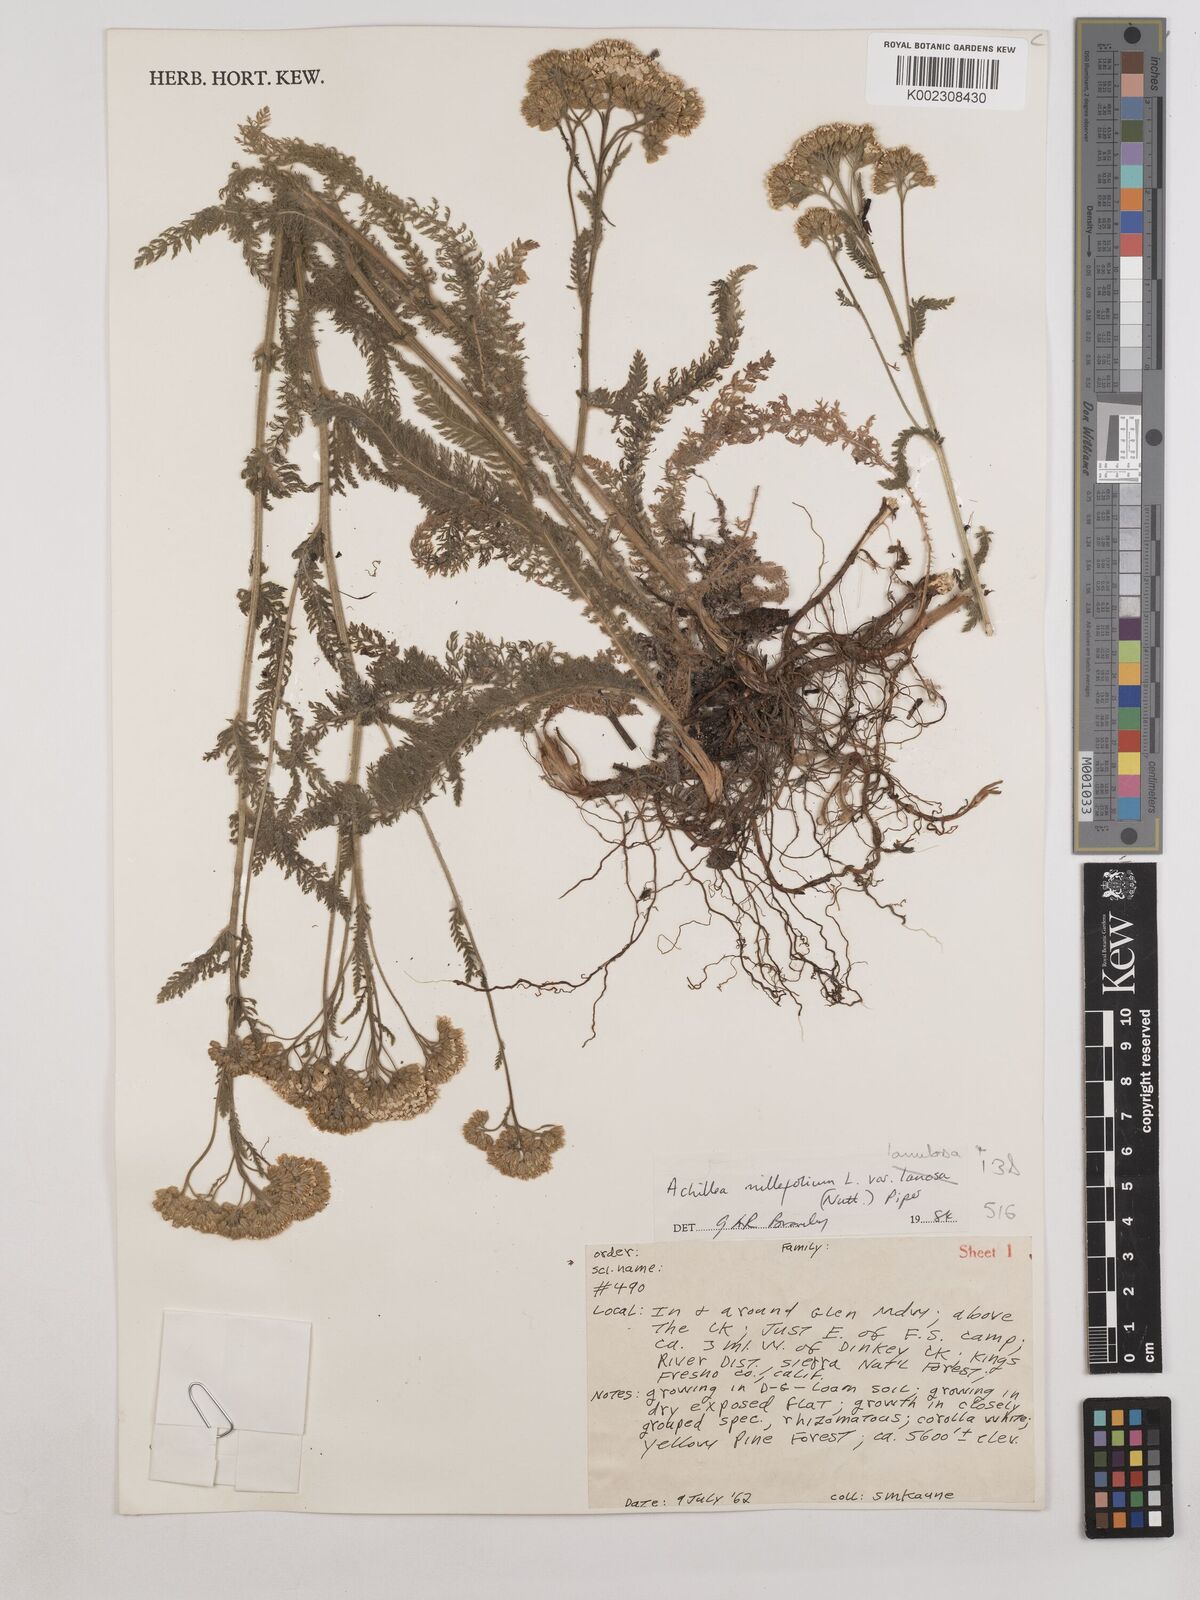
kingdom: Plantae
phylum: Tracheophyta
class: Magnoliopsida
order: Asterales
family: Asteraceae
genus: Achillea
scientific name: Achillea millefolium
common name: Yarrow
